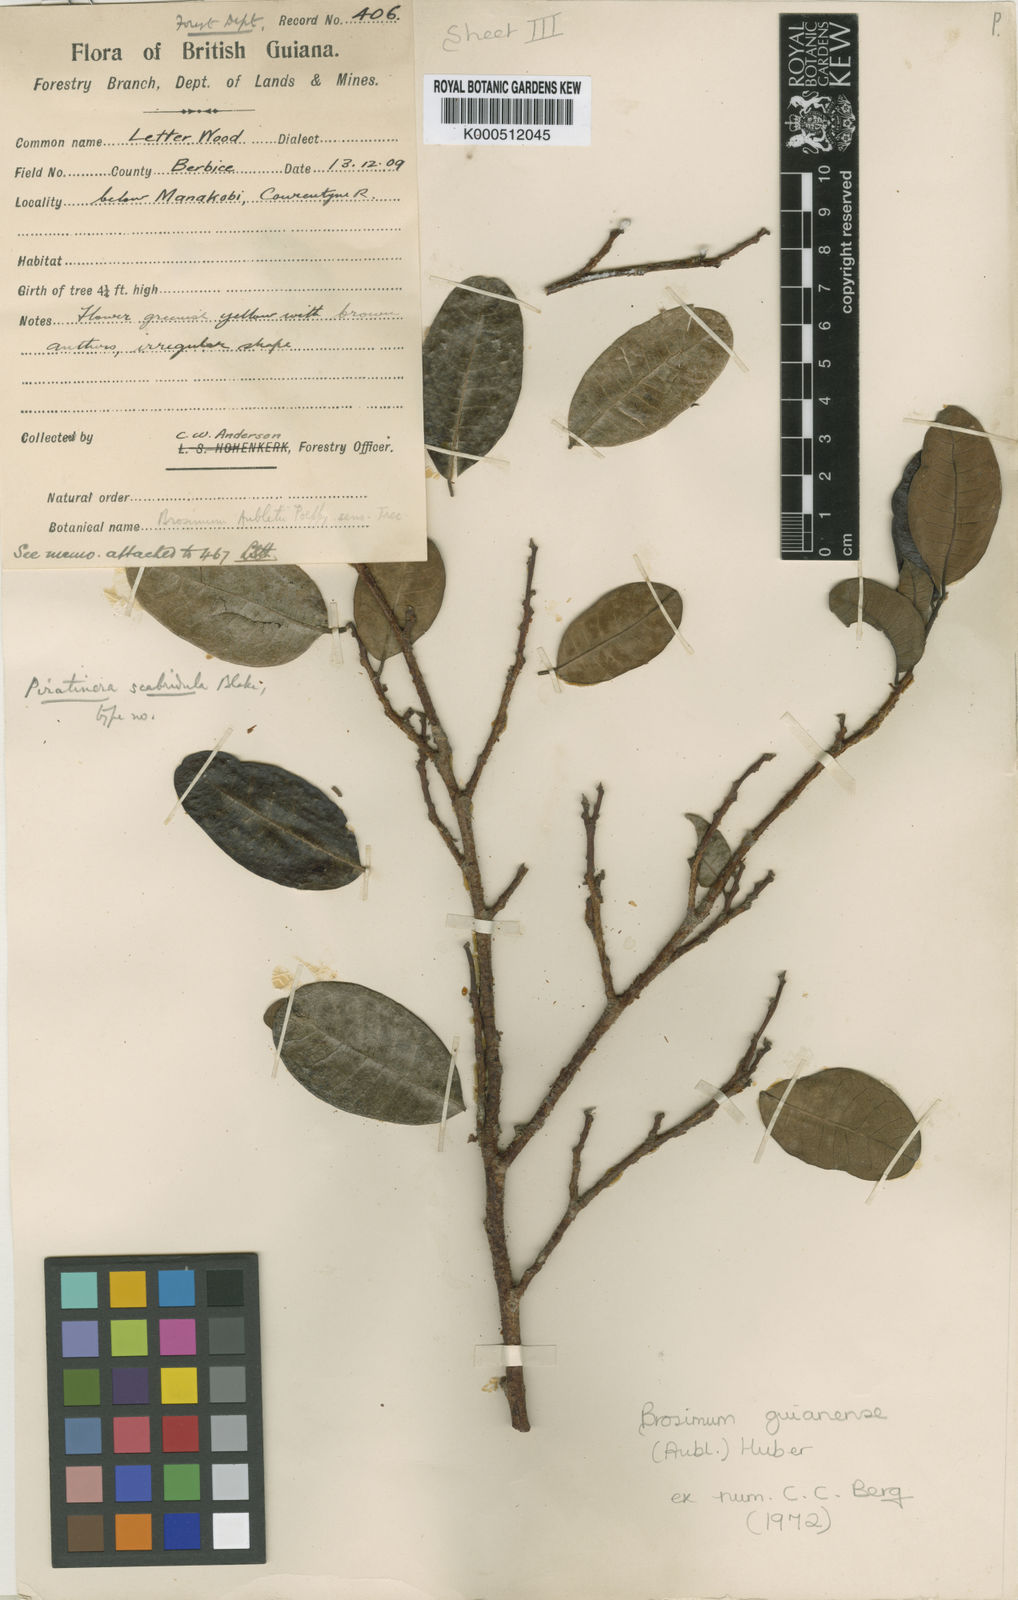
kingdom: Plantae
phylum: Tracheophyta
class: Magnoliopsida
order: Rosales
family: Moraceae
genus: Brosimum
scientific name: Brosimum
